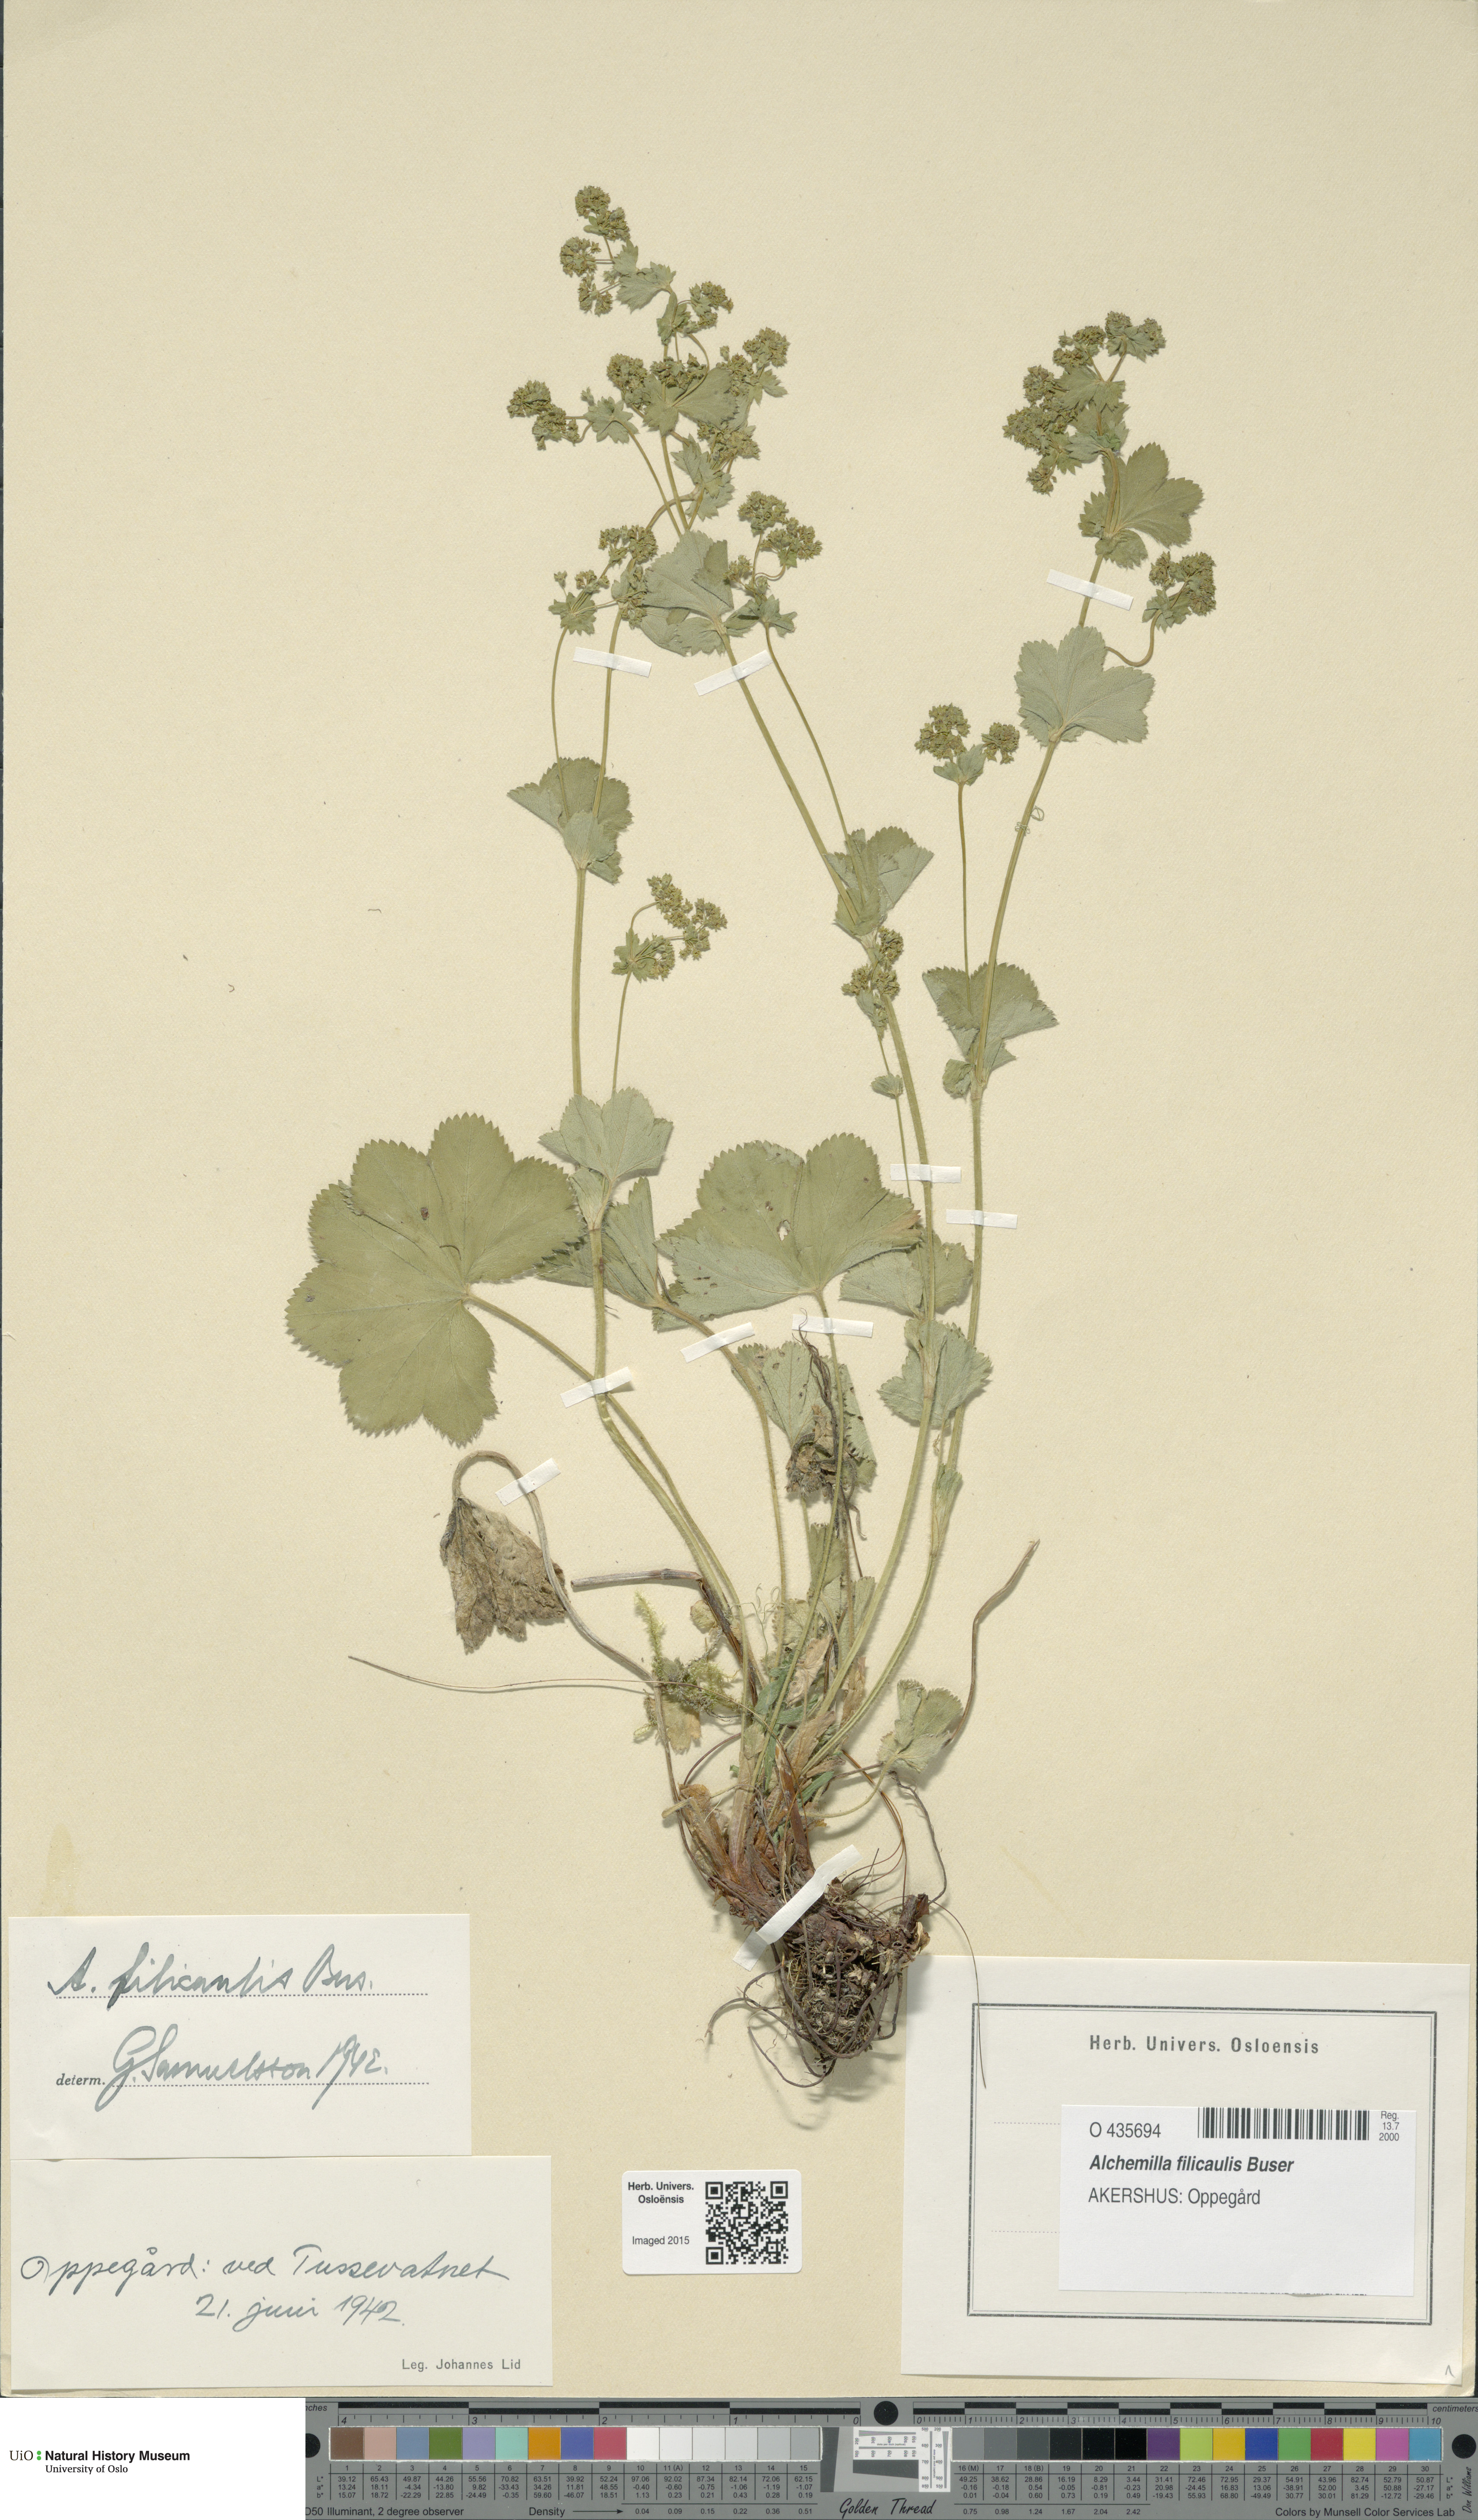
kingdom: Plantae
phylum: Tracheophyta
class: Magnoliopsida
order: Rosales
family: Rosaceae
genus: Alchemilla
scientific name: Alchemilla filicaulis
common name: Hairy lady's-mantle
